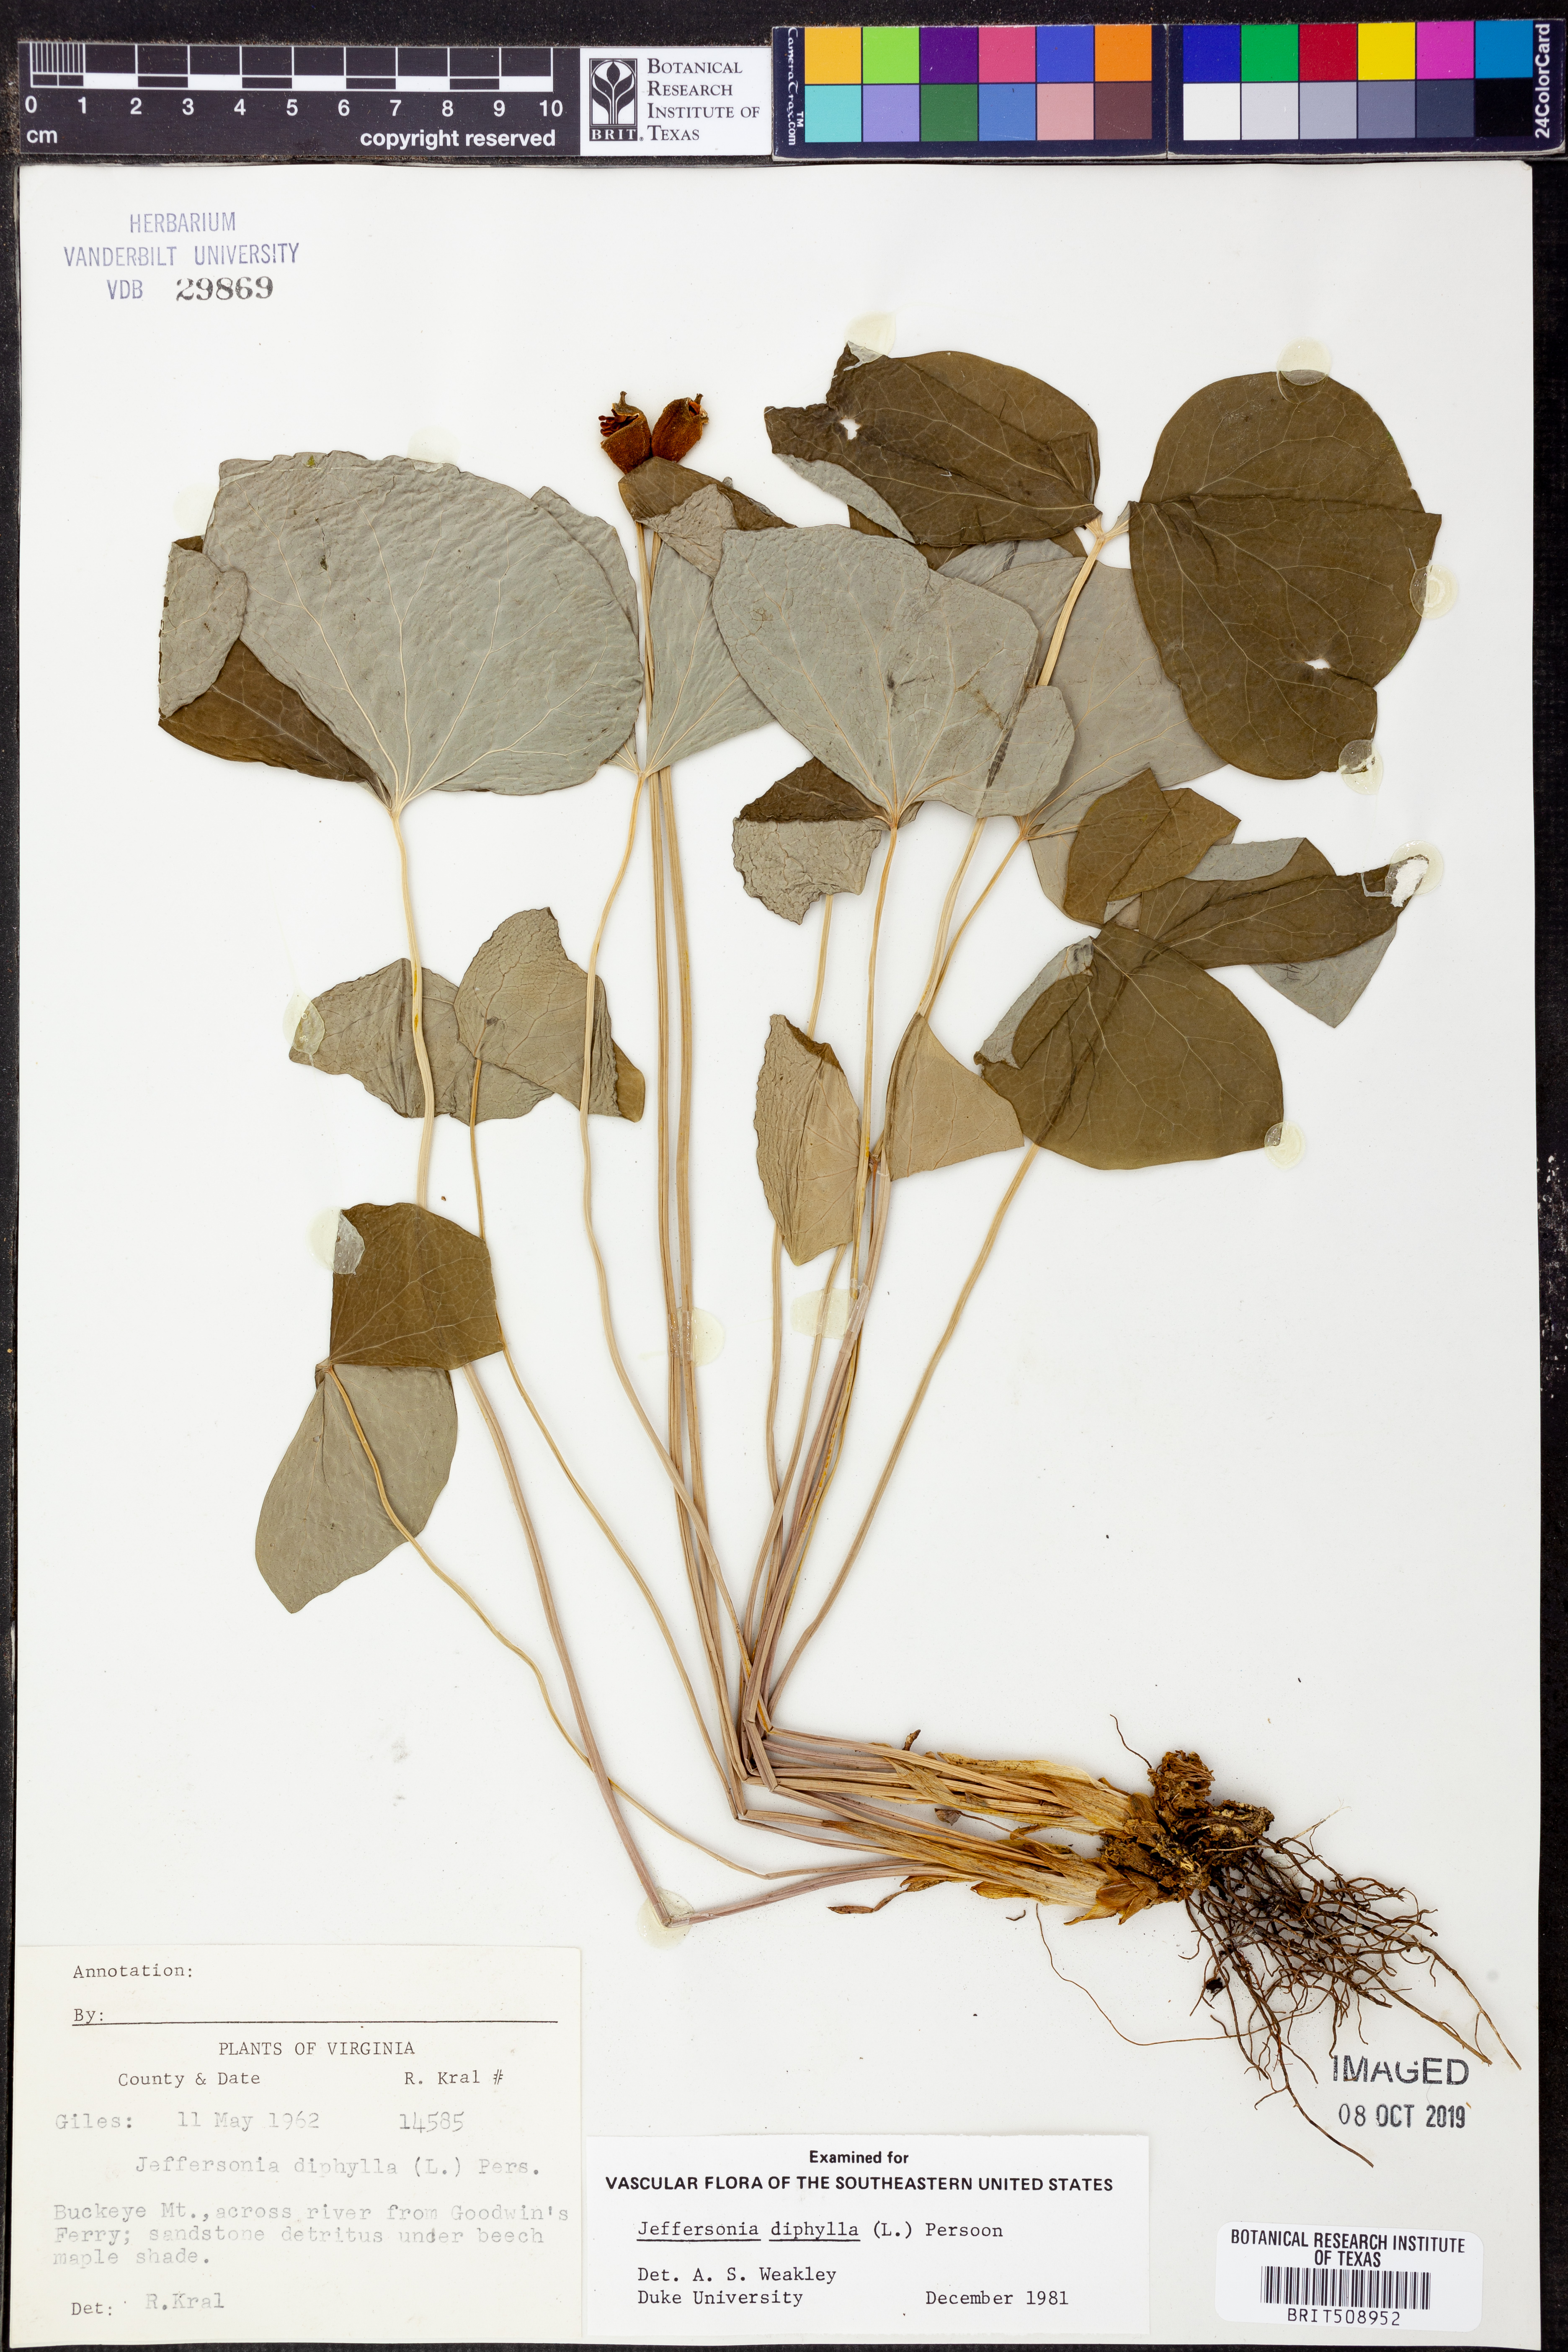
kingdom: Plantae
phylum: Tracheophyta
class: Magnoliopsida
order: Ranunculales
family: Berberidaceae
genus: Jeffersonia
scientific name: Jeffersonia diphylla
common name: Rheumatism-root
